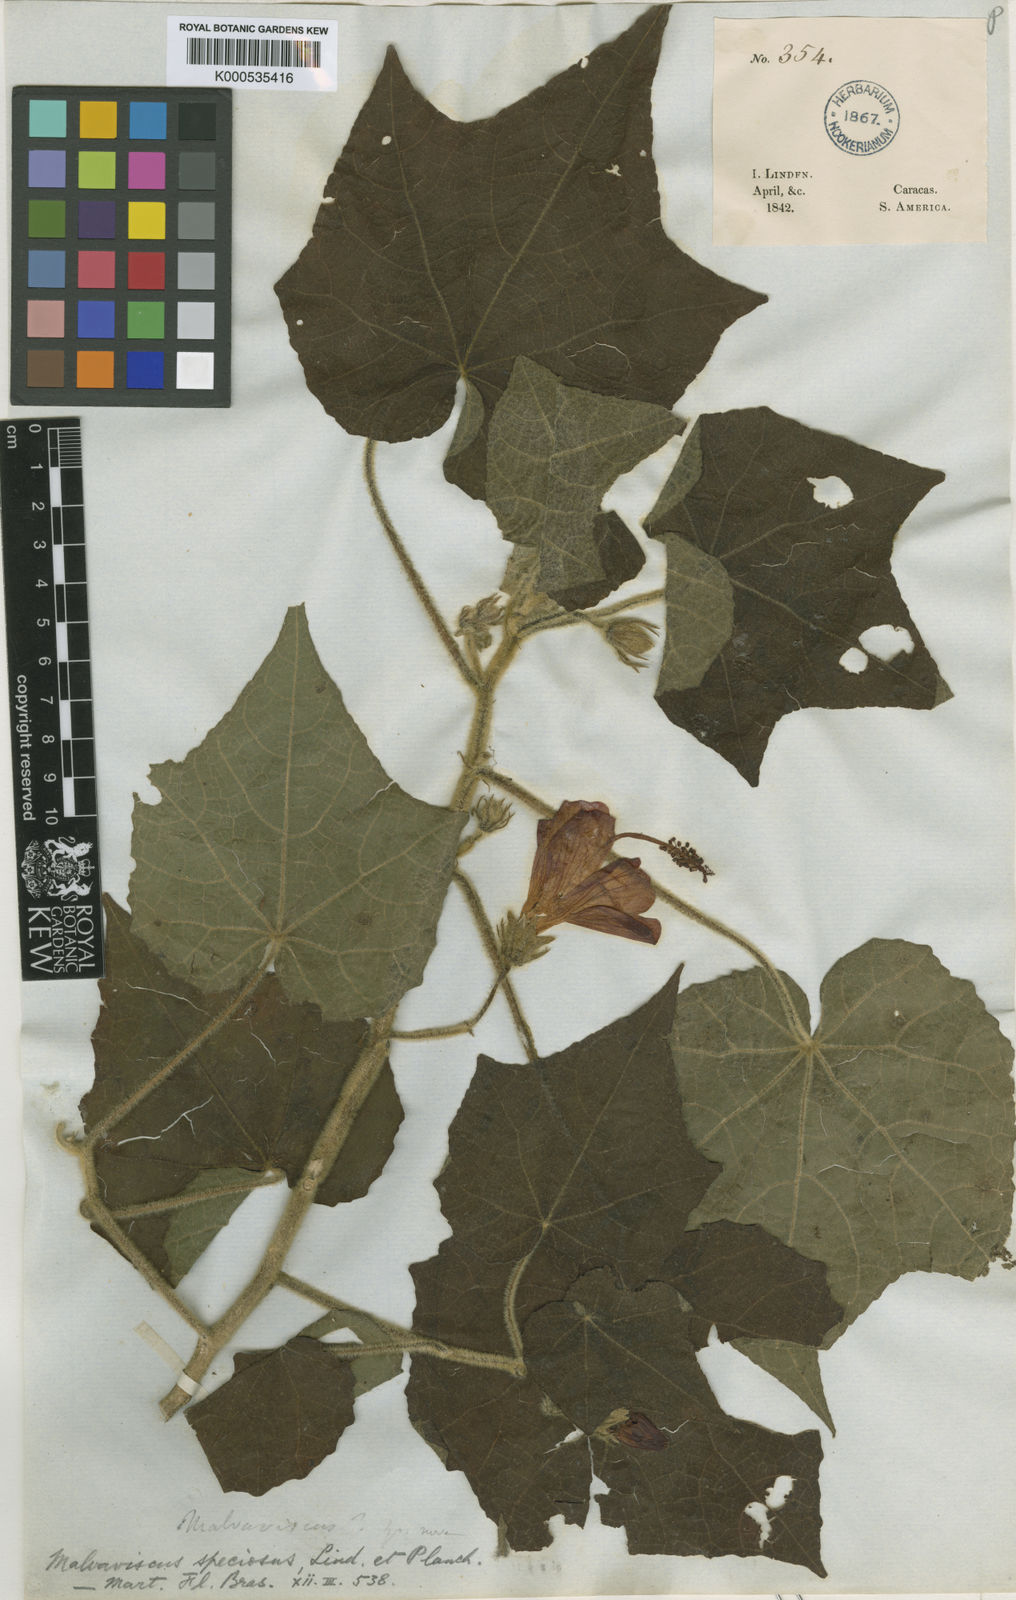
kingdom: Plantae
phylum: Tracheophyta
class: Magnoliopsida
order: Malvales
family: Malvaceae
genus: Malvaviscus
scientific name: Malvaviscus arboreus
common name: Wax mallow
